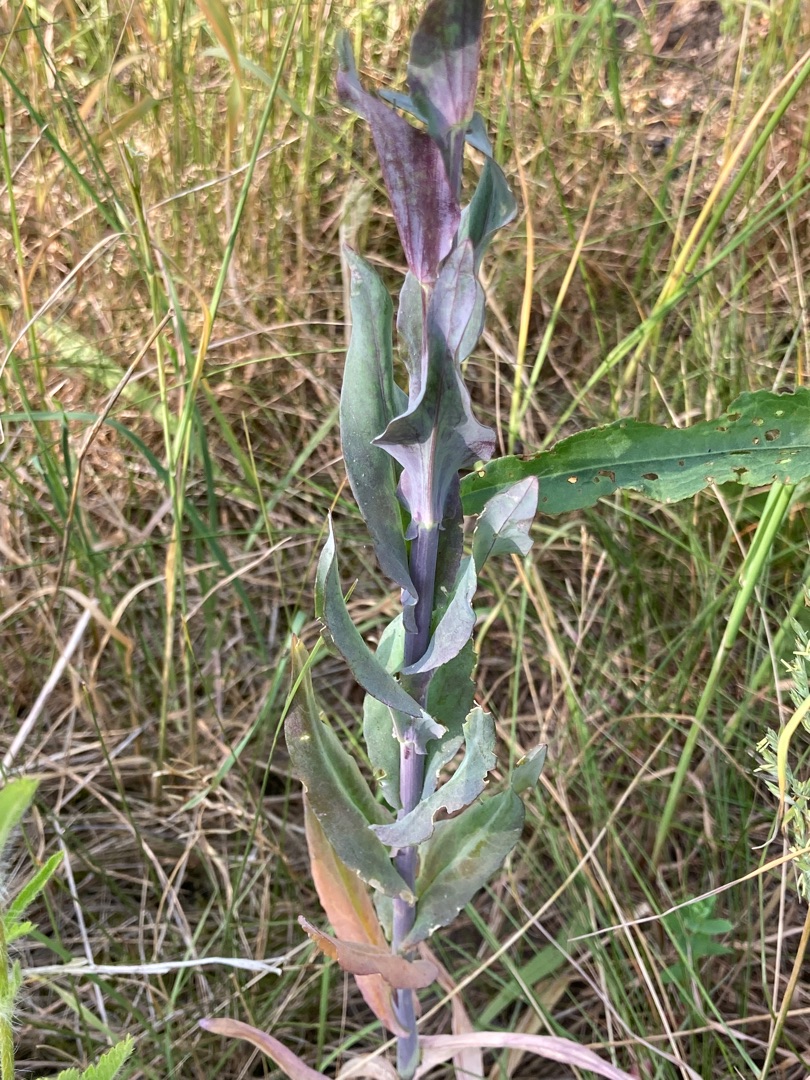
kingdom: Plantae
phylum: Tracheophyta
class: Magnoliopsida
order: Brassicales
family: Brassicaceae
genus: Turritis
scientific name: Turritis glabra
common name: Tårnurt
